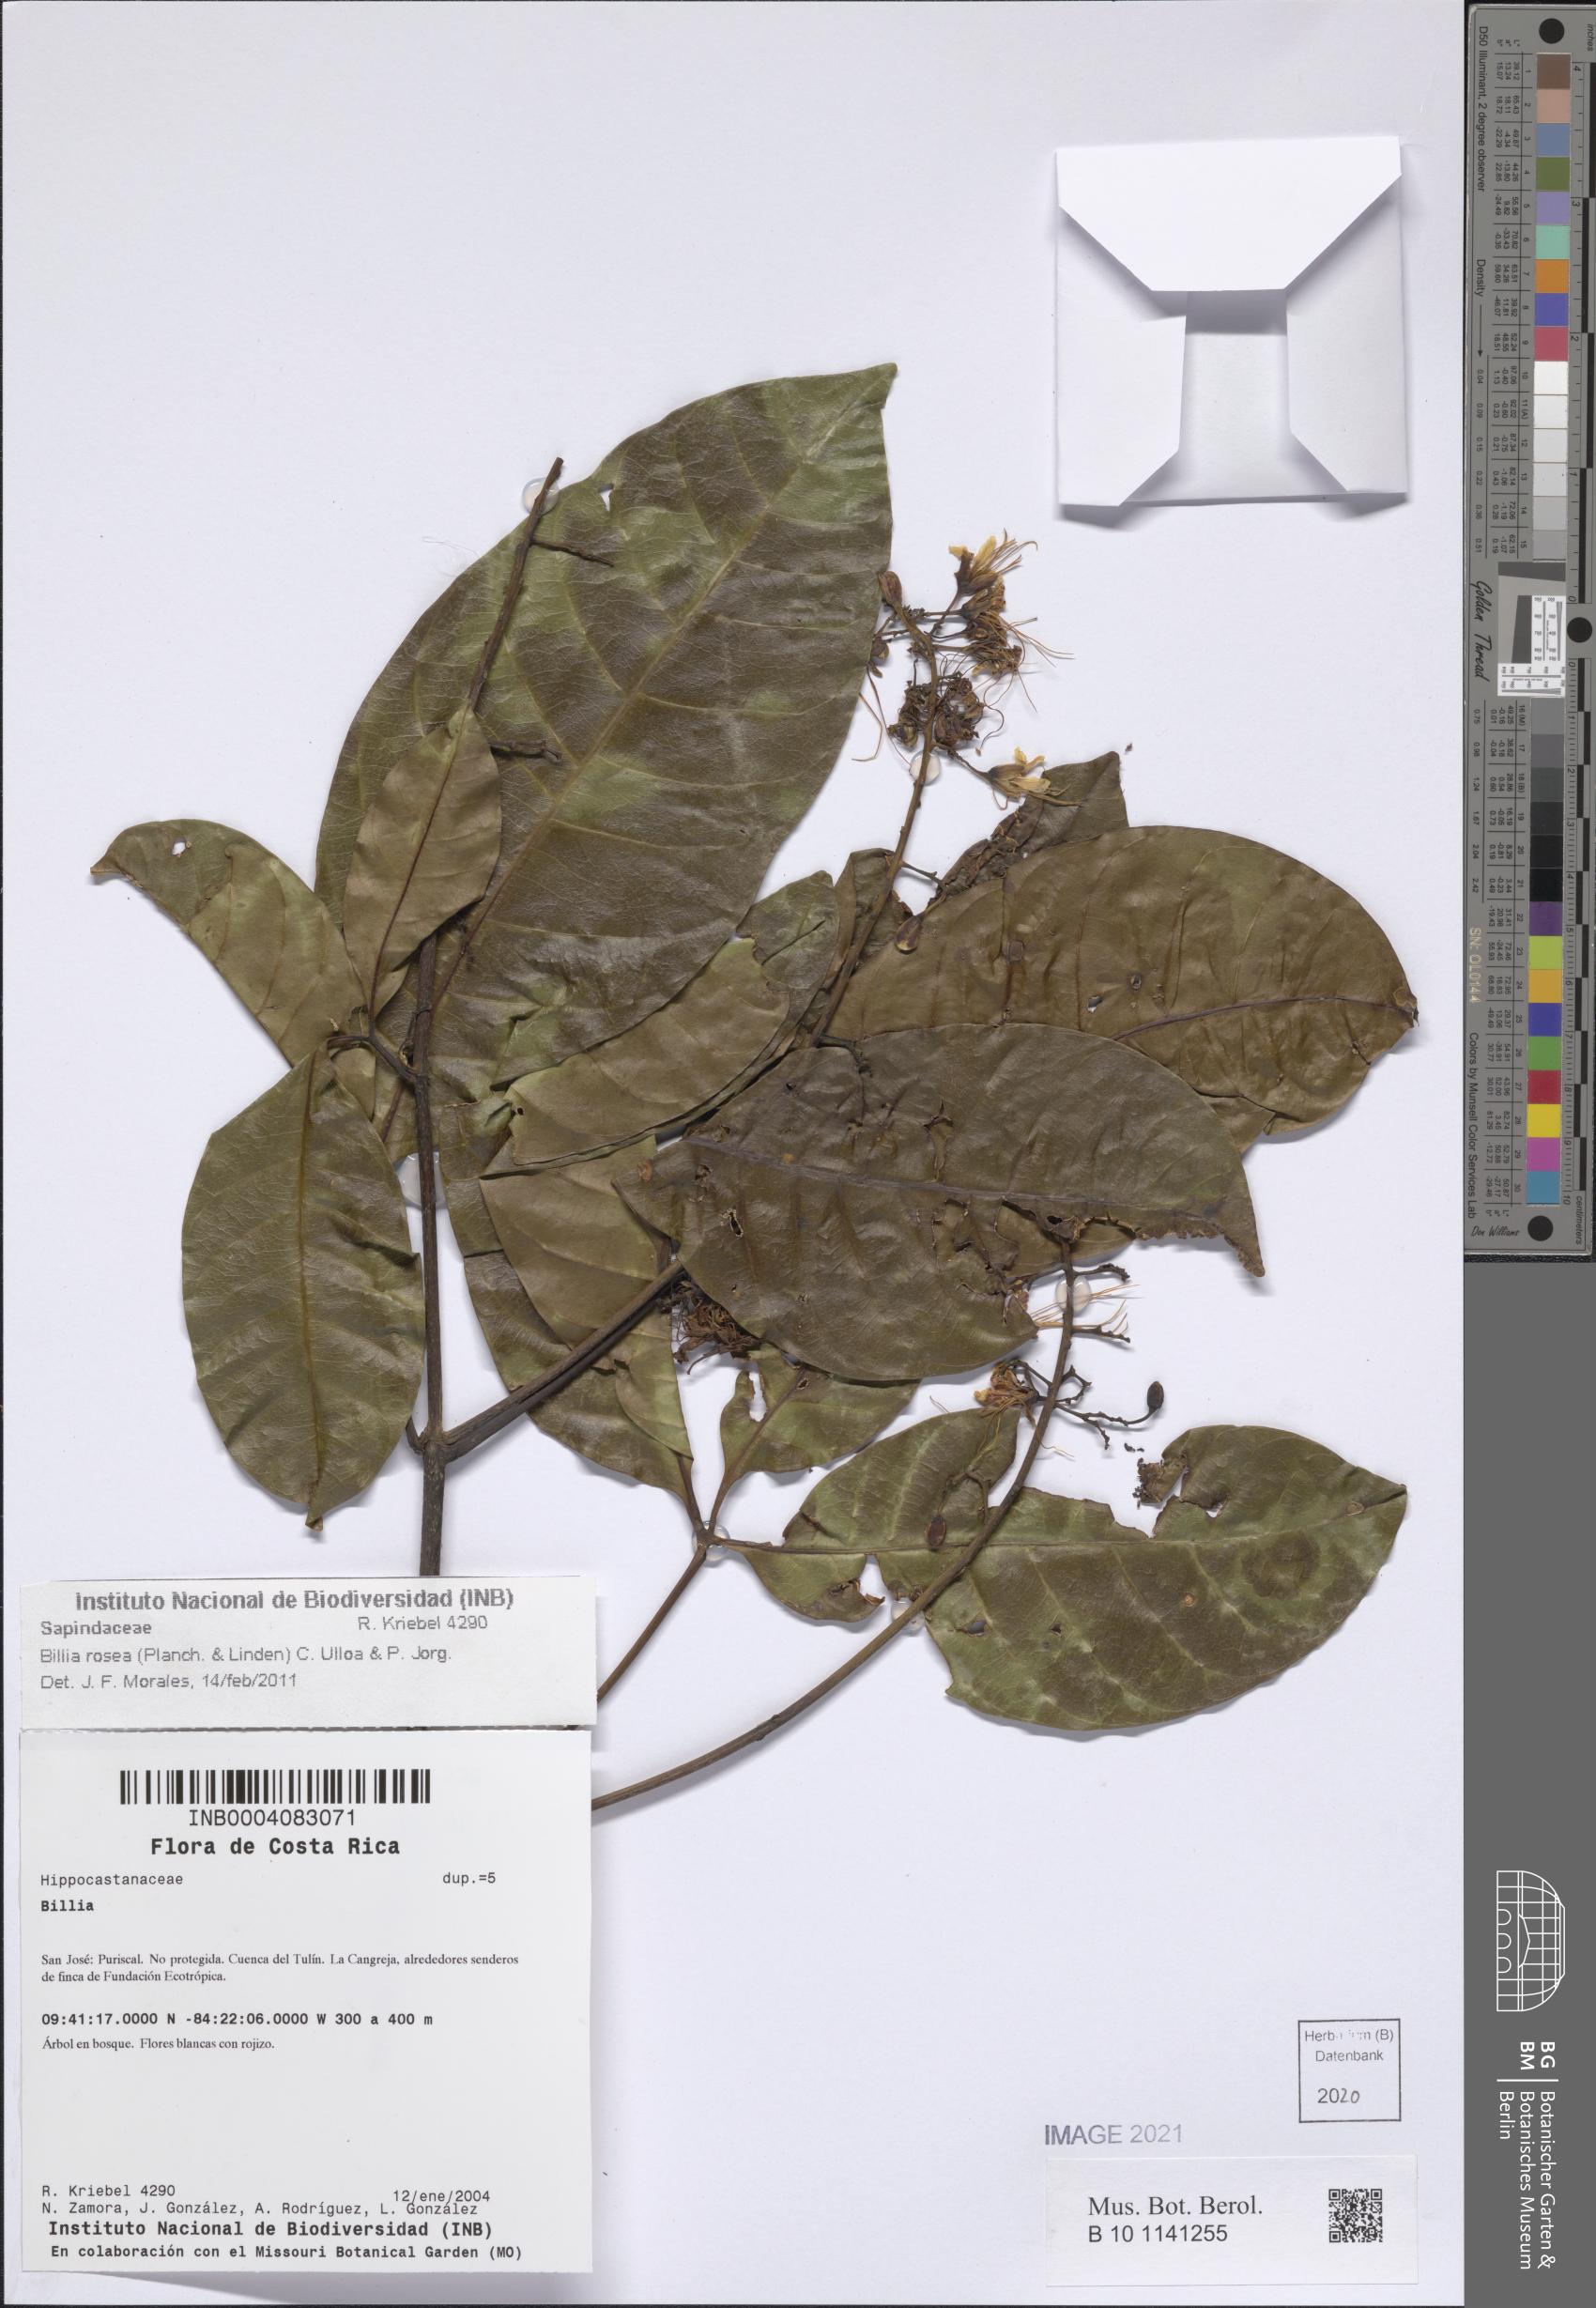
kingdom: Plantae
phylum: Tracheophyta
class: Magnoliopsida
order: Sapindales
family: Sapindaceae
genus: Billia
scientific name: Billia rosea
